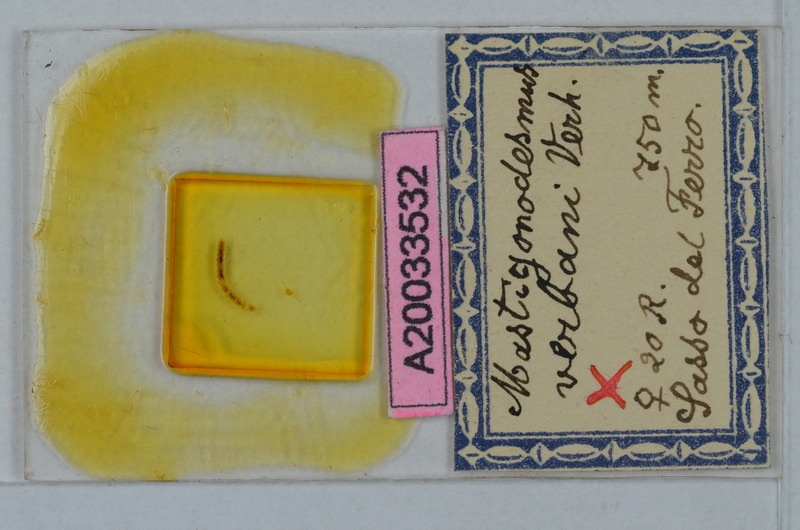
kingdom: Animalia
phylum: Arthropoda
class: Diplopoda
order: Polydesmida
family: Polydesmidae
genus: Mastigonodesmus
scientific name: Mastigonodesmus verbani
